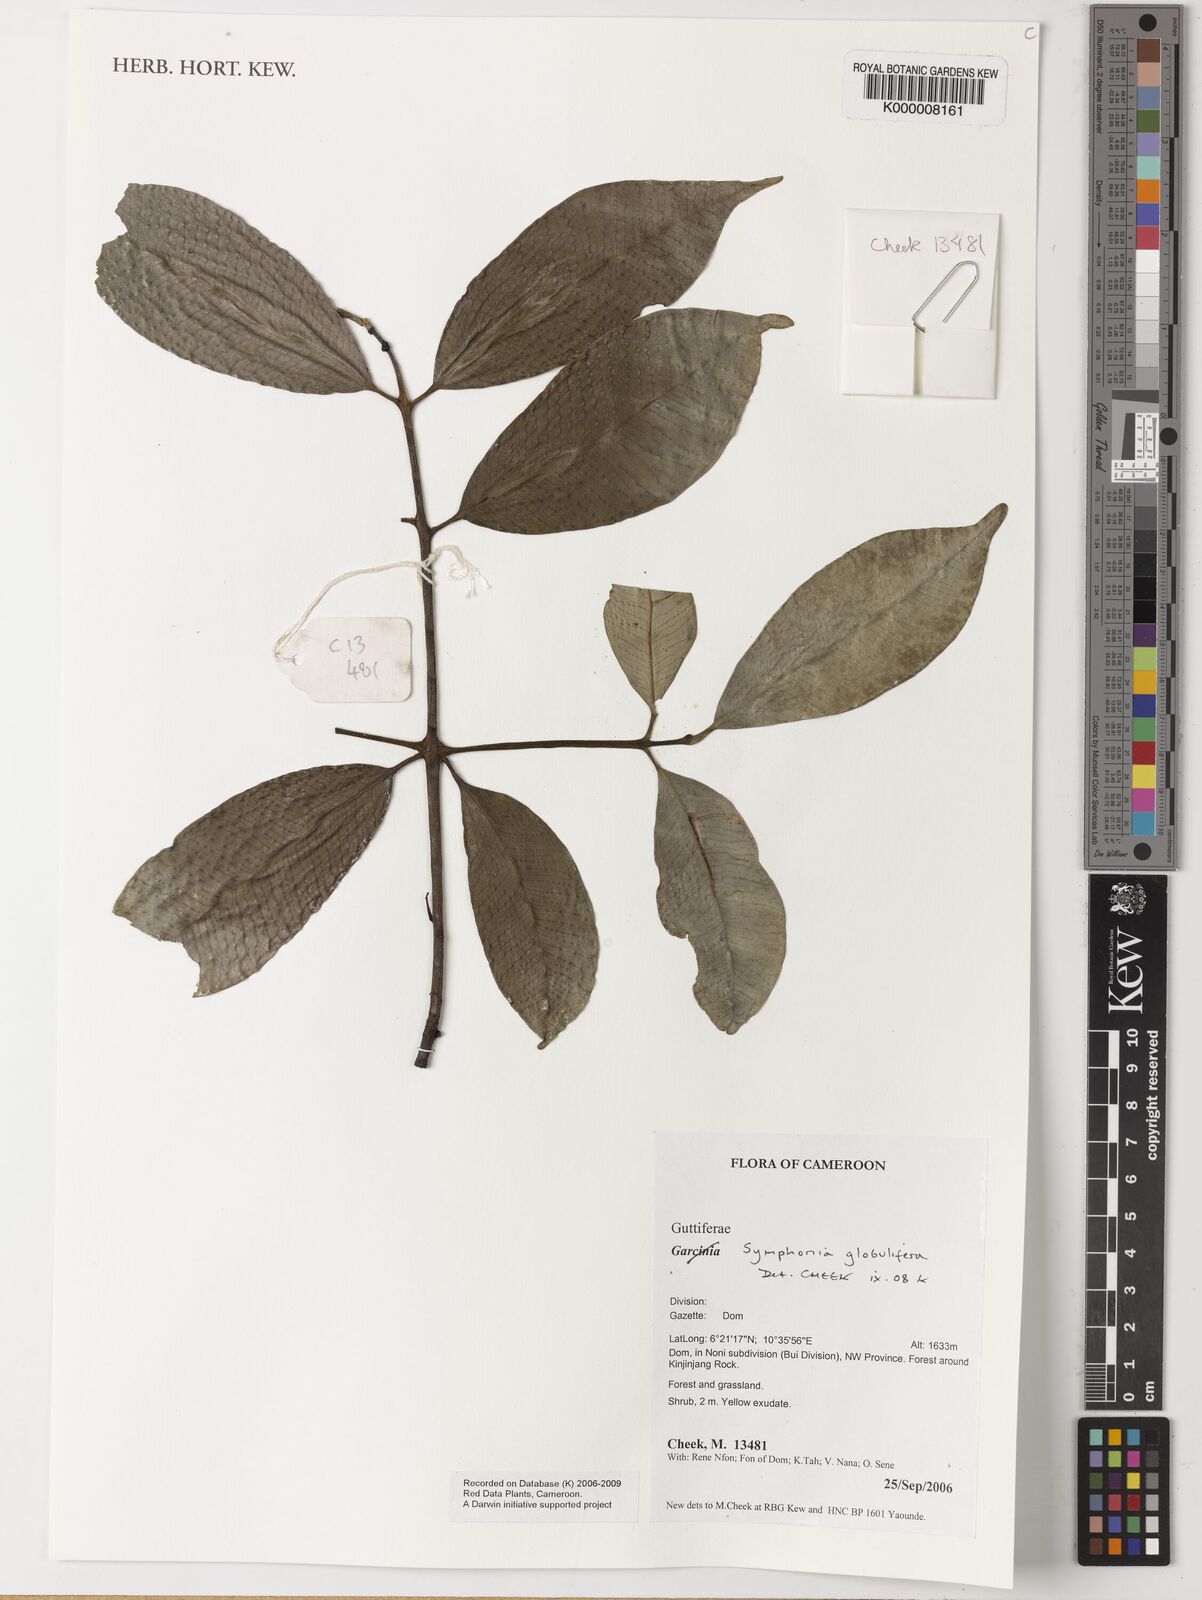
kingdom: Plantae
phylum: Tracheophyta
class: Magnoliopsida
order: Malpighiales
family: Clusiaceae
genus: Symphonia
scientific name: Symphonia globulifera
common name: Boarwood
